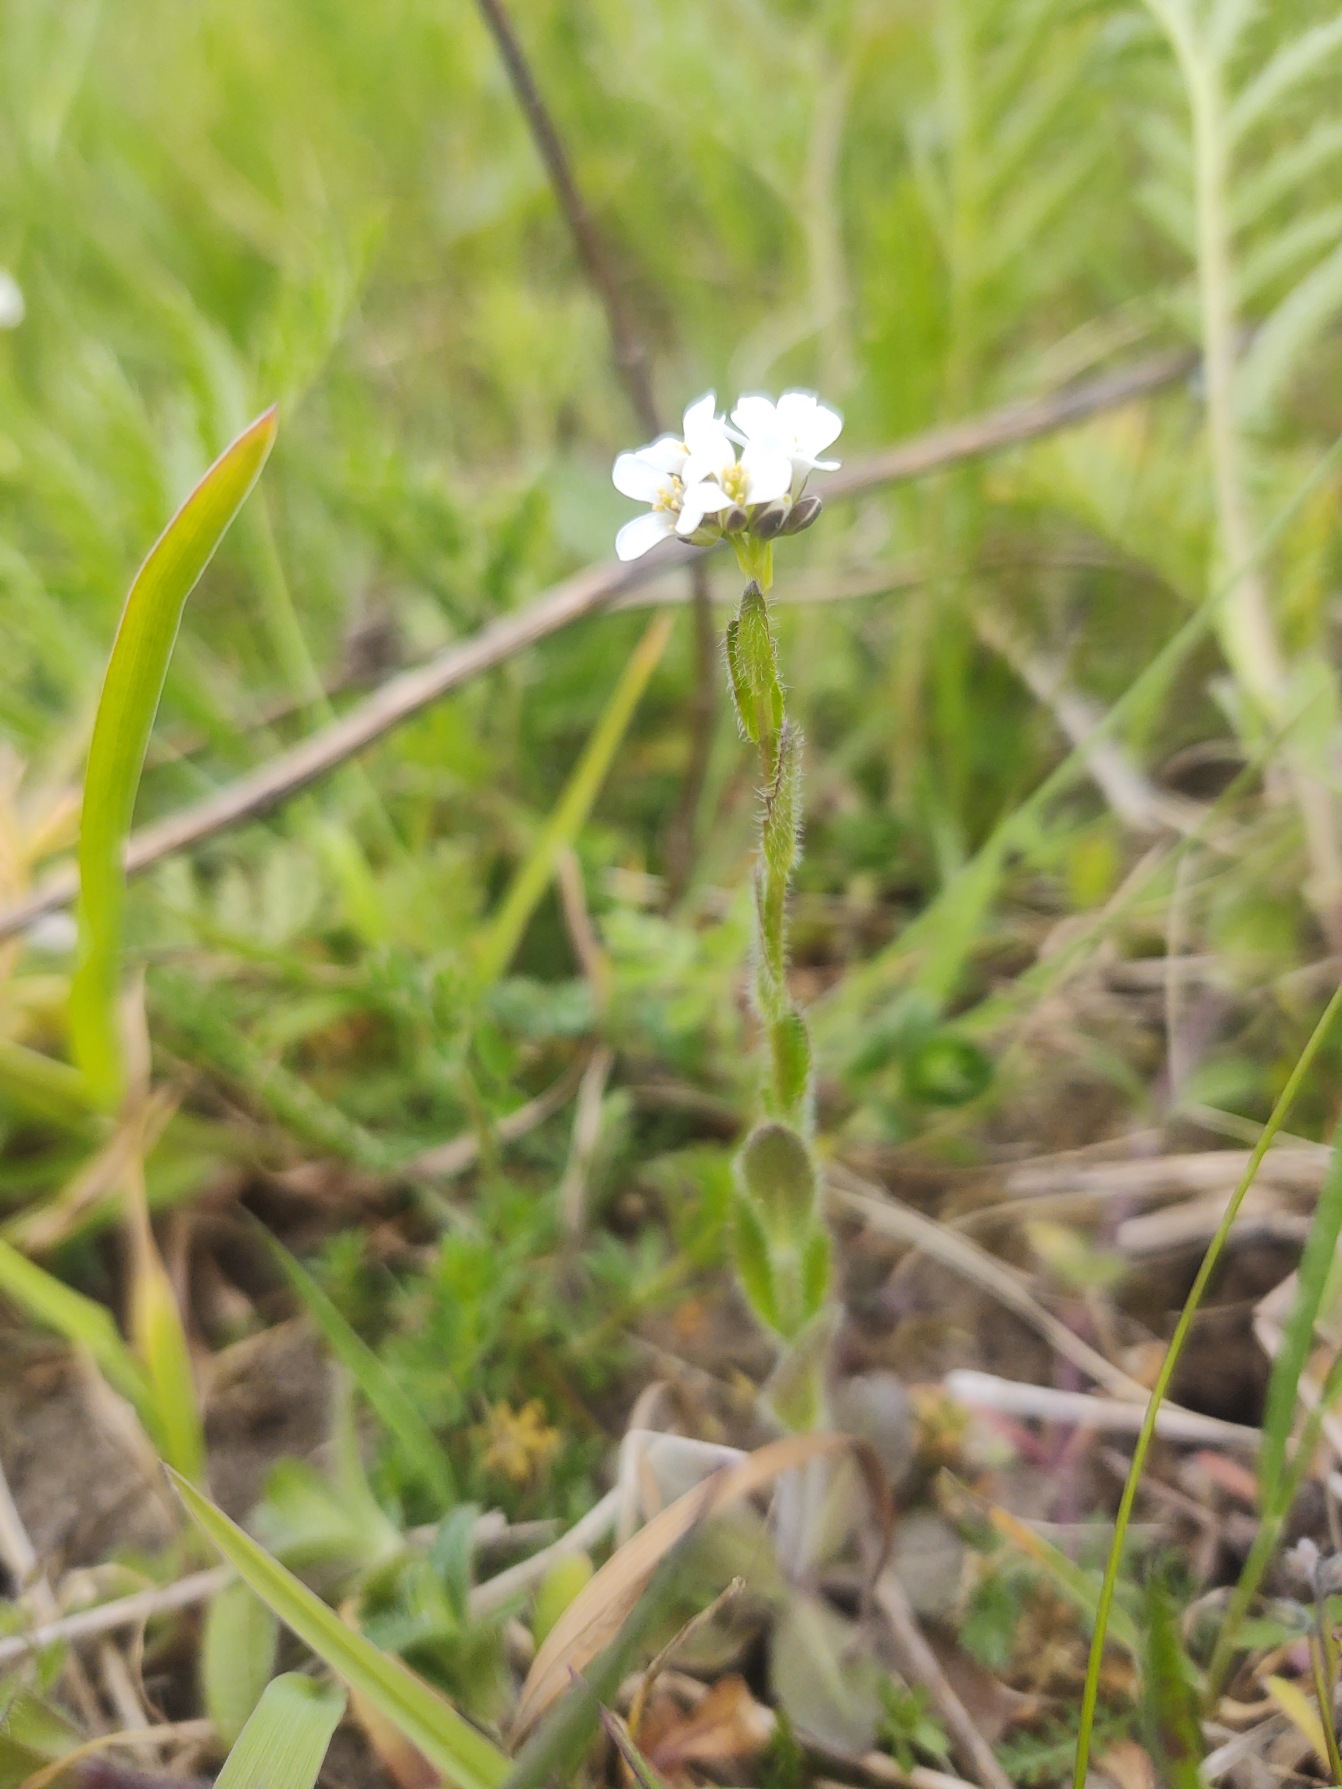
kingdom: Plantae
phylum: Tracheophyta
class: Magnoliopsida
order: Brassicales
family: Brassicaceae
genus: Arabis
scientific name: Arabis hirsuta
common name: Stivhåret kalkkarse
